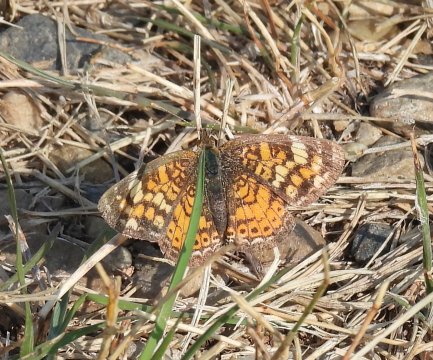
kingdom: Animalia
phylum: Arthropoda
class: Insecta
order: Lepidoptera
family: Nymphalidae
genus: Phyciodes
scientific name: Phyciodes tharos
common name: Pearl Crescent
